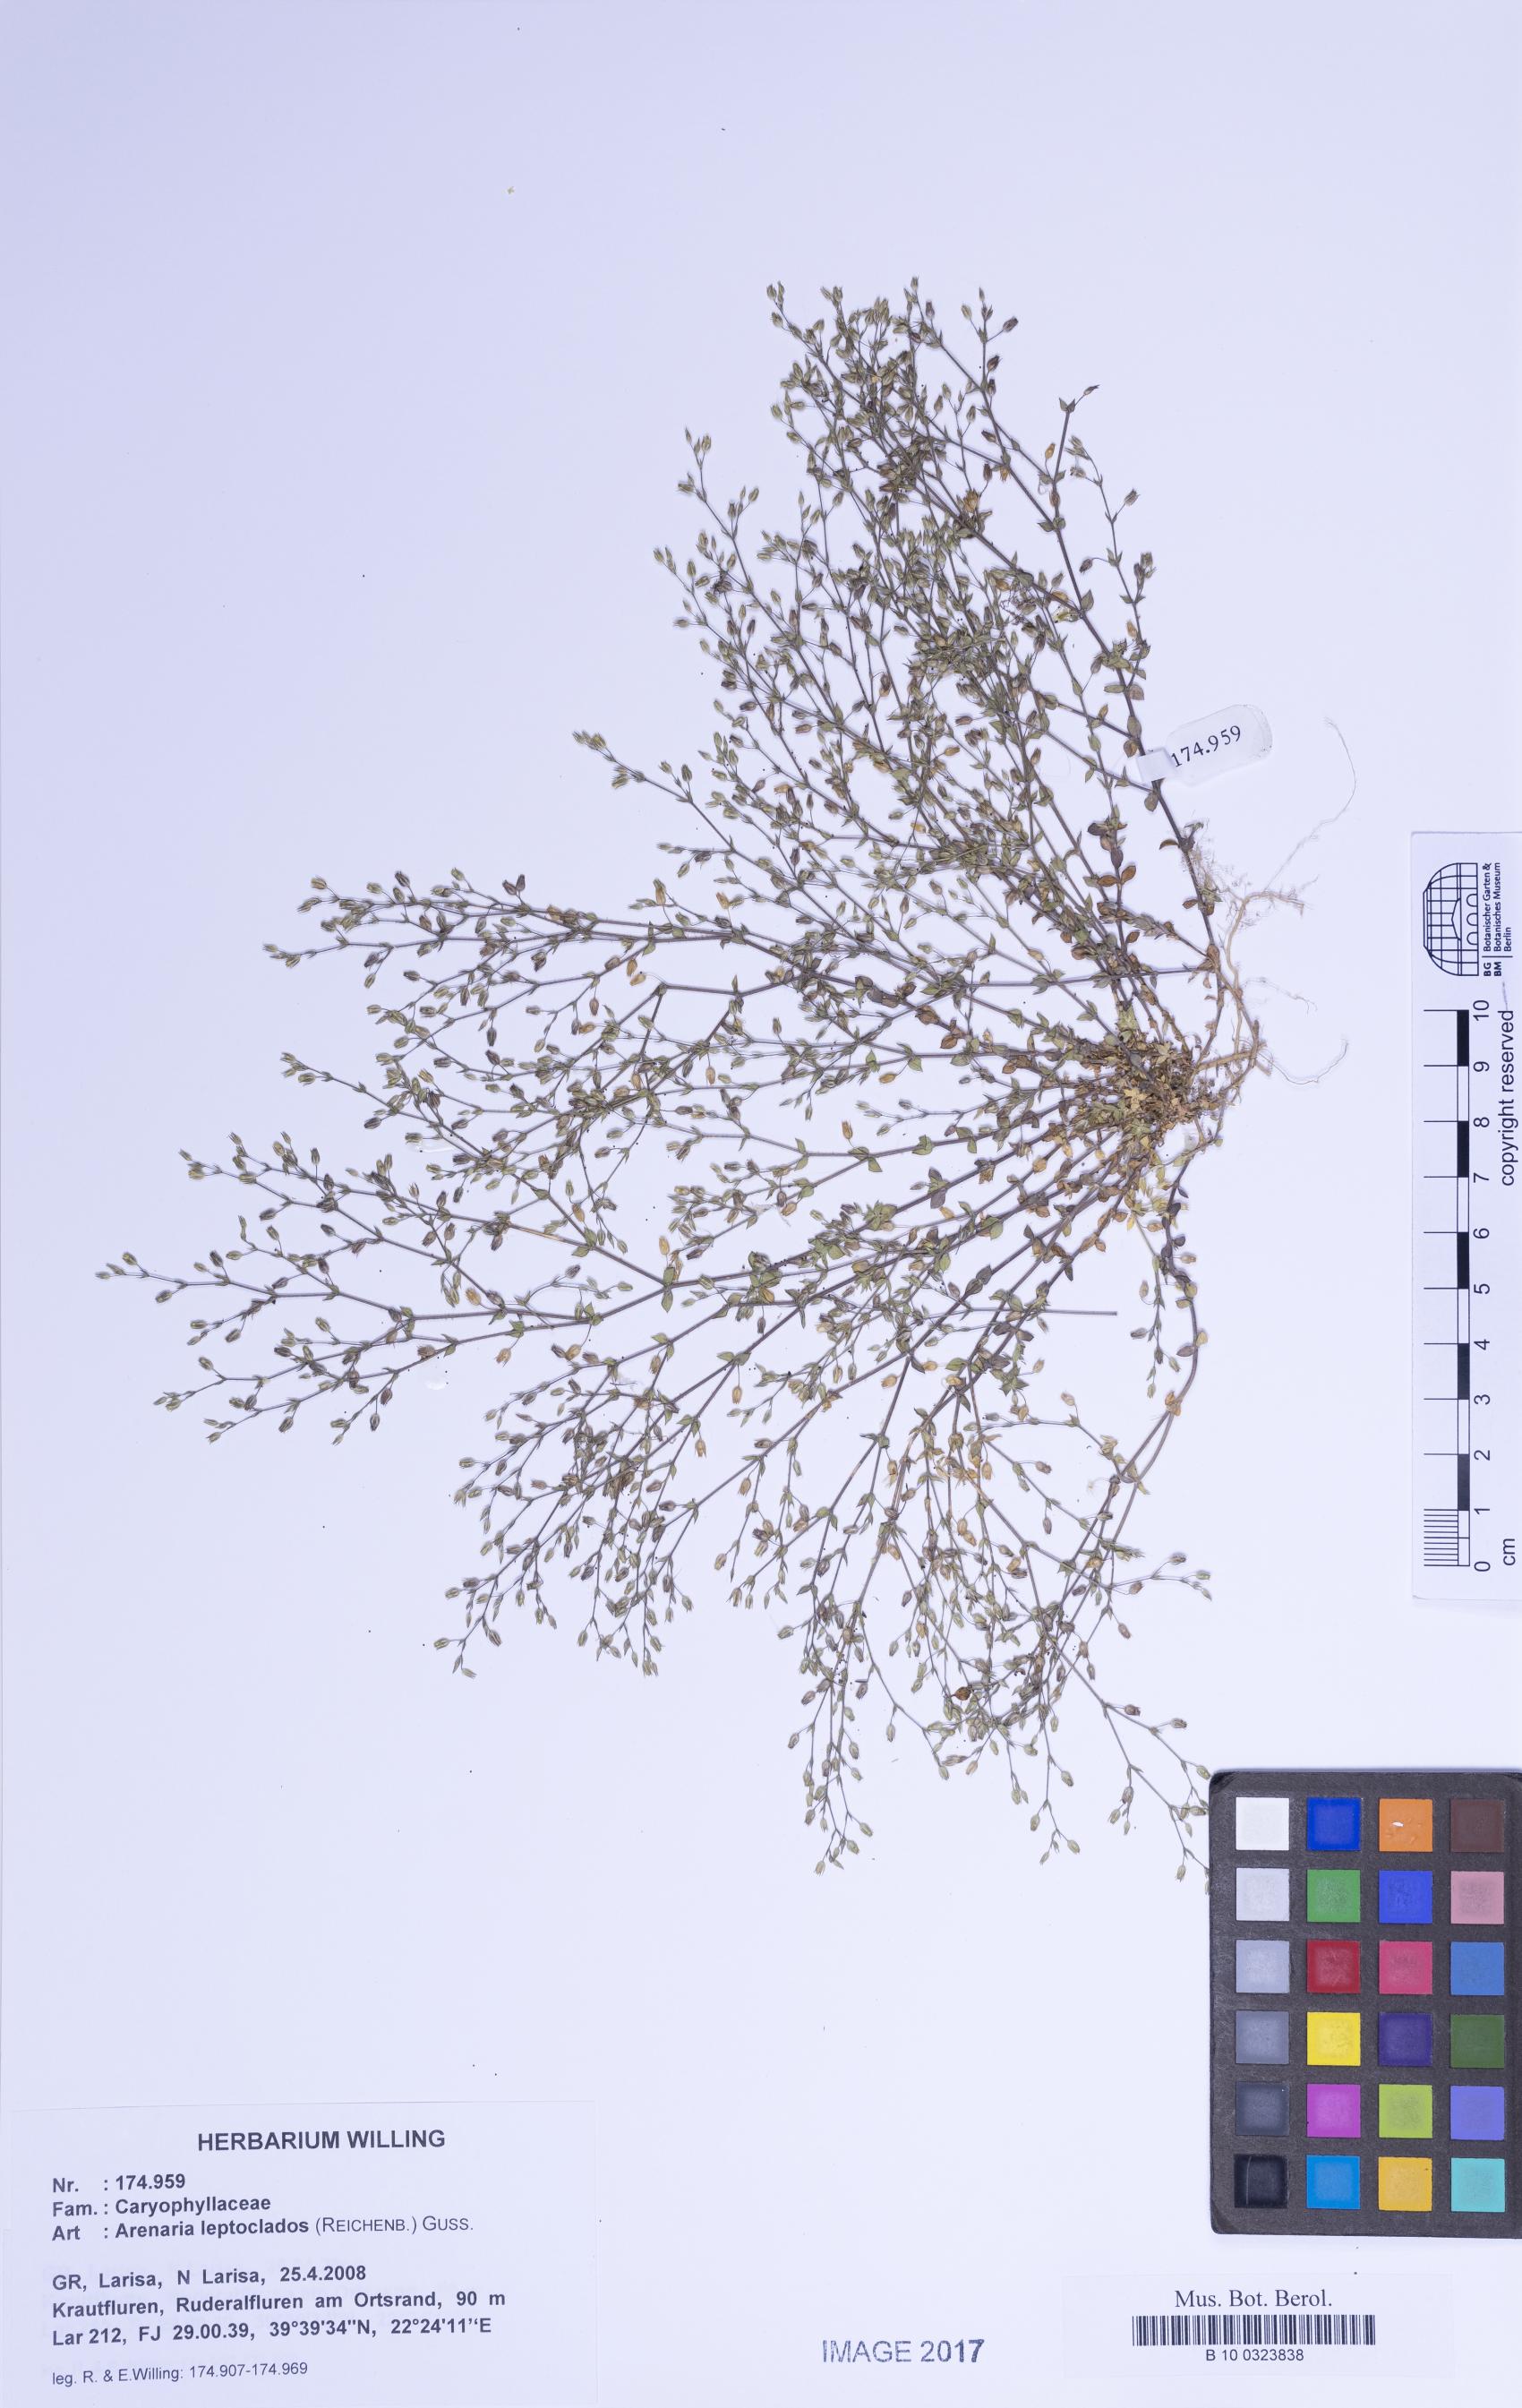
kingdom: Plantae
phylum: Tracheophyta
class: Magnoliopsida
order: Caryophyllales
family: Caryophyllaceae
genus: Arenaria
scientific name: Arenaria leptoclados
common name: Thyme-leaved sandwort
